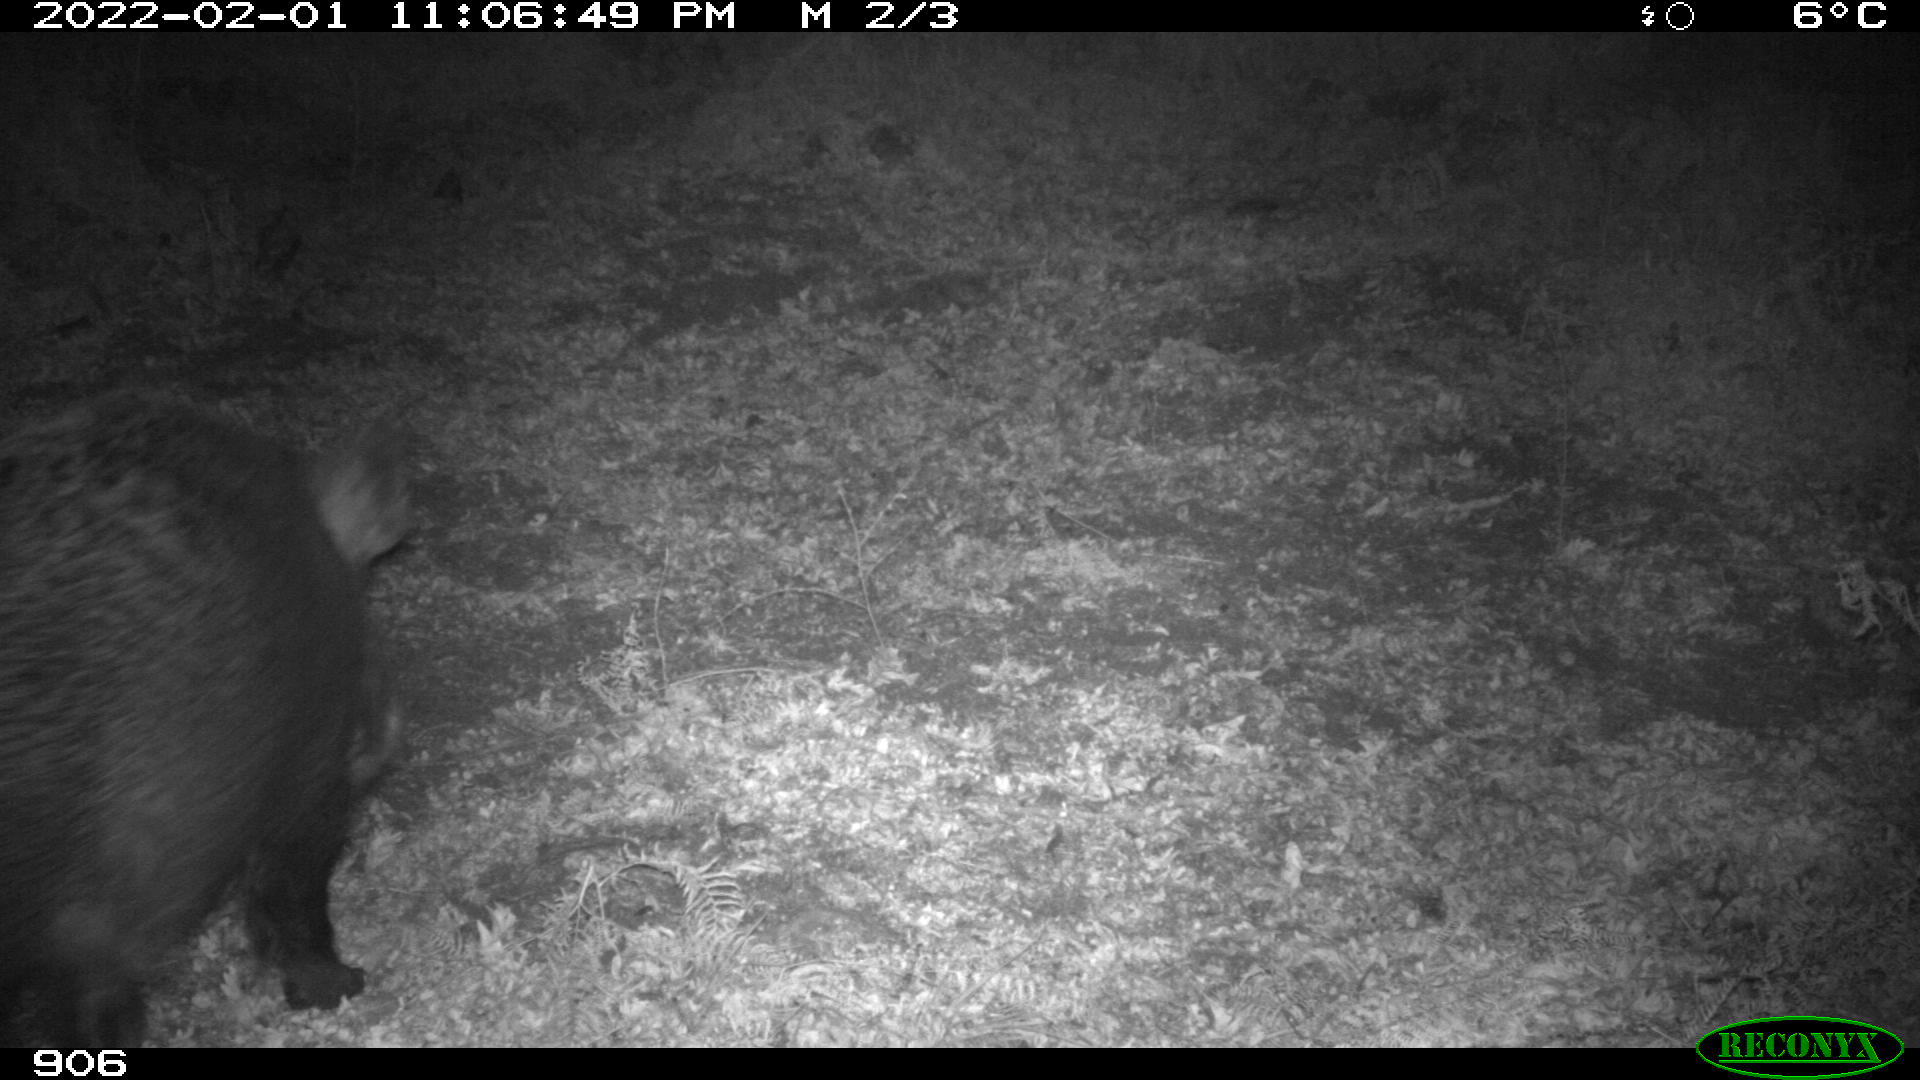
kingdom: Animalia
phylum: Chordata
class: Mammalia
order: Artiodactyla
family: Suidae
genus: Sus
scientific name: Sus scrofa
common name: Wild boar
